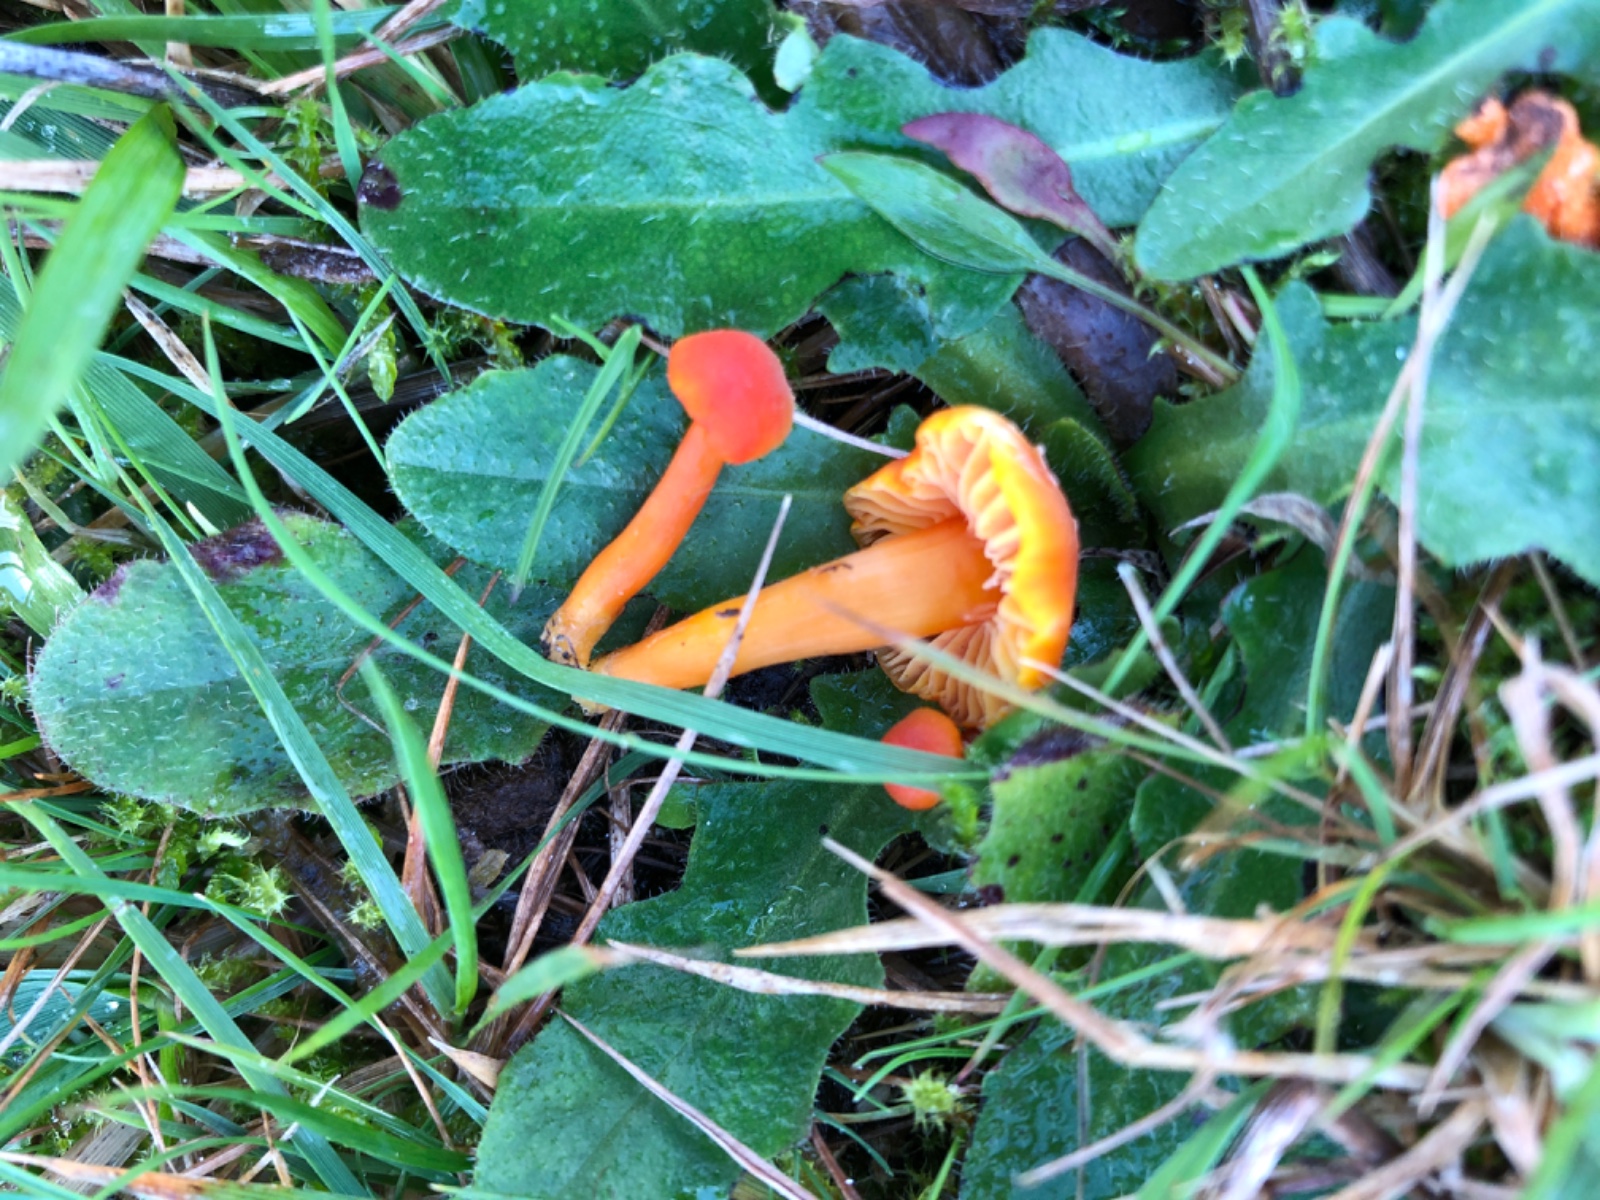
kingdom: Fungi
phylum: Basidiomycota
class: Agaricomycetes
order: Agaricales
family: Hygrophoraceae
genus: Hygrocybe
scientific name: Hygrocybe miniata
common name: mønje-vokshat
